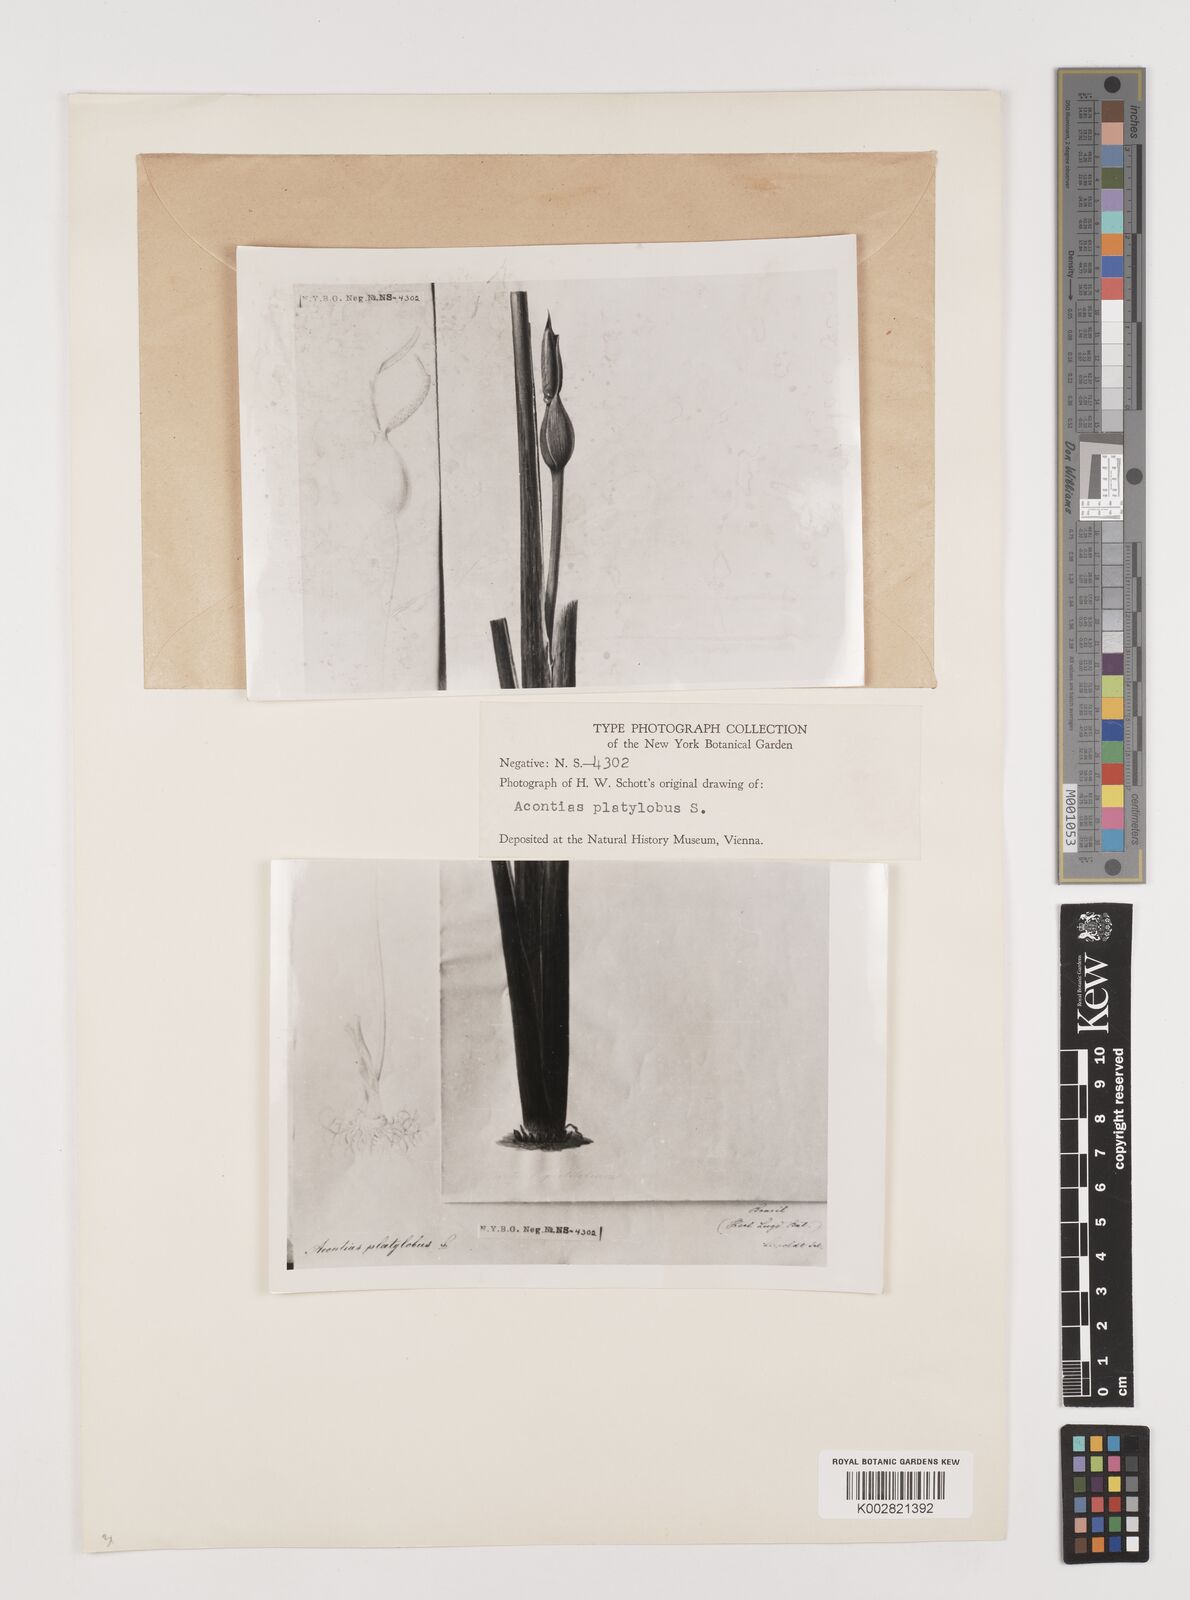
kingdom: Plantae
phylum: Tracheophyta
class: Liliopsida
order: Alismatales
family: Araceae
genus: Xanthosoma
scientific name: Xanthosoma platylobum
